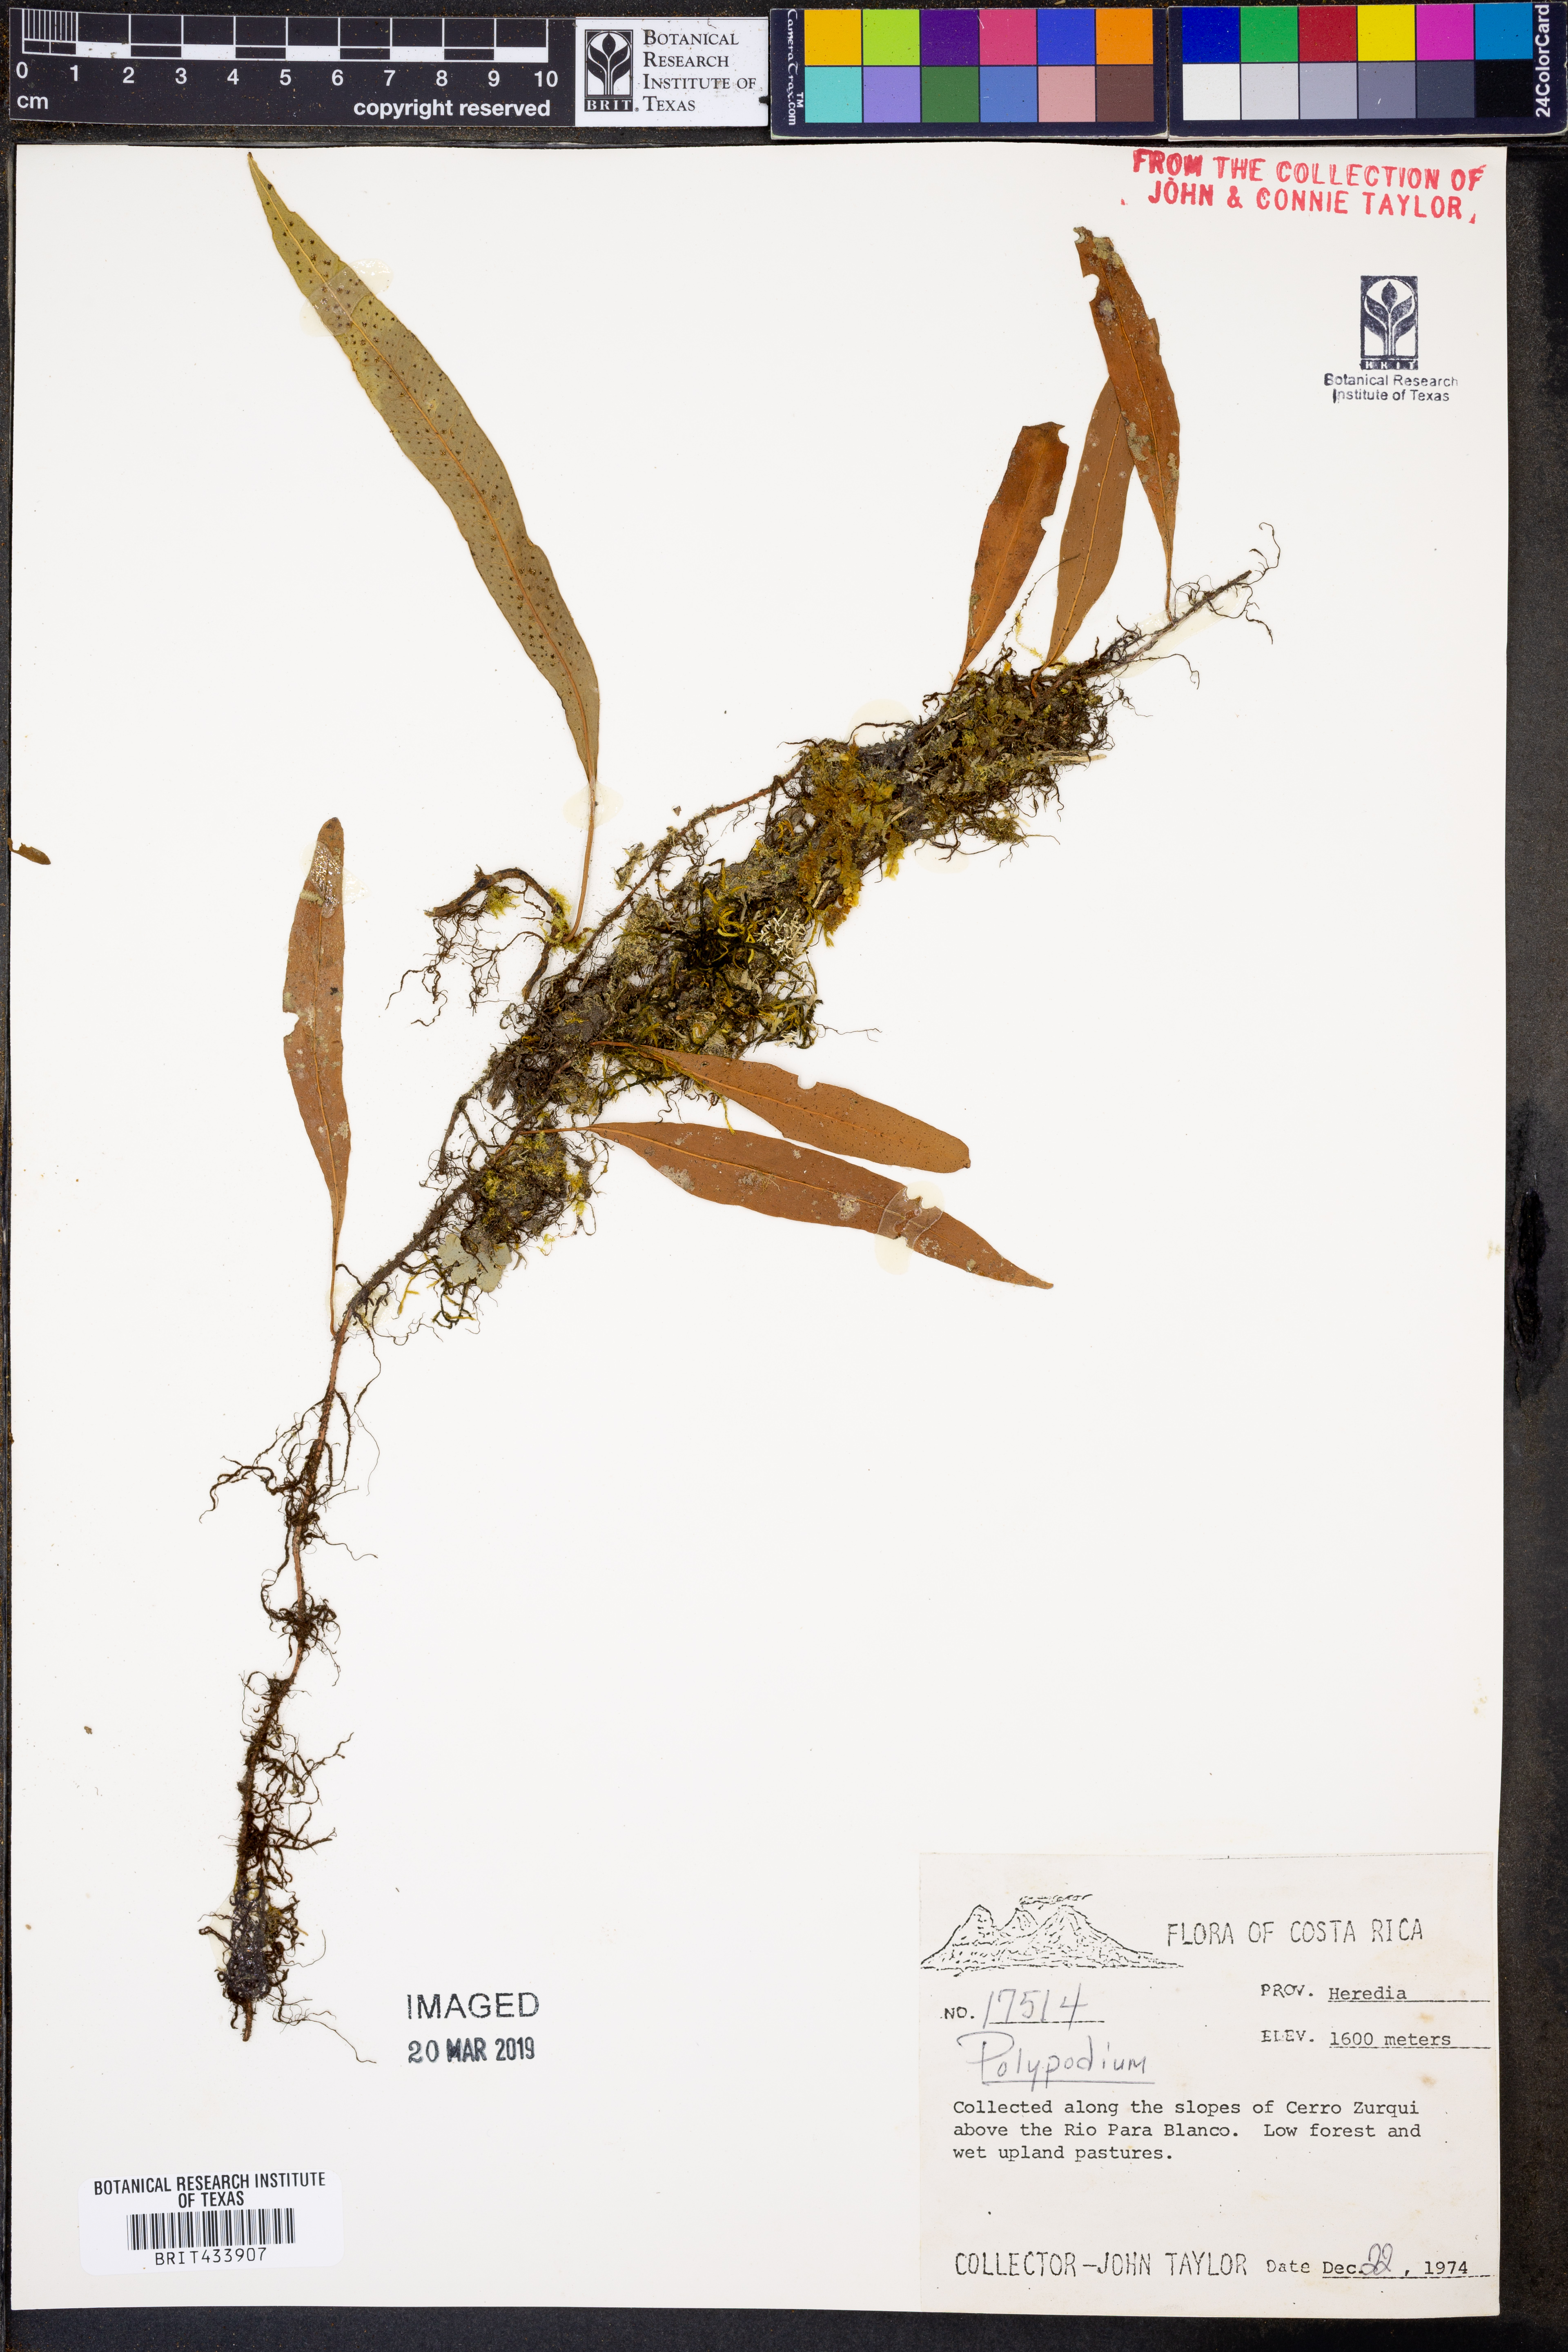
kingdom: Plantae
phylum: Tracheophyta
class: Polypodiopsida
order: Polypodiales
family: Polypodiaceae
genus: Polypodium
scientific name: Polypodium
